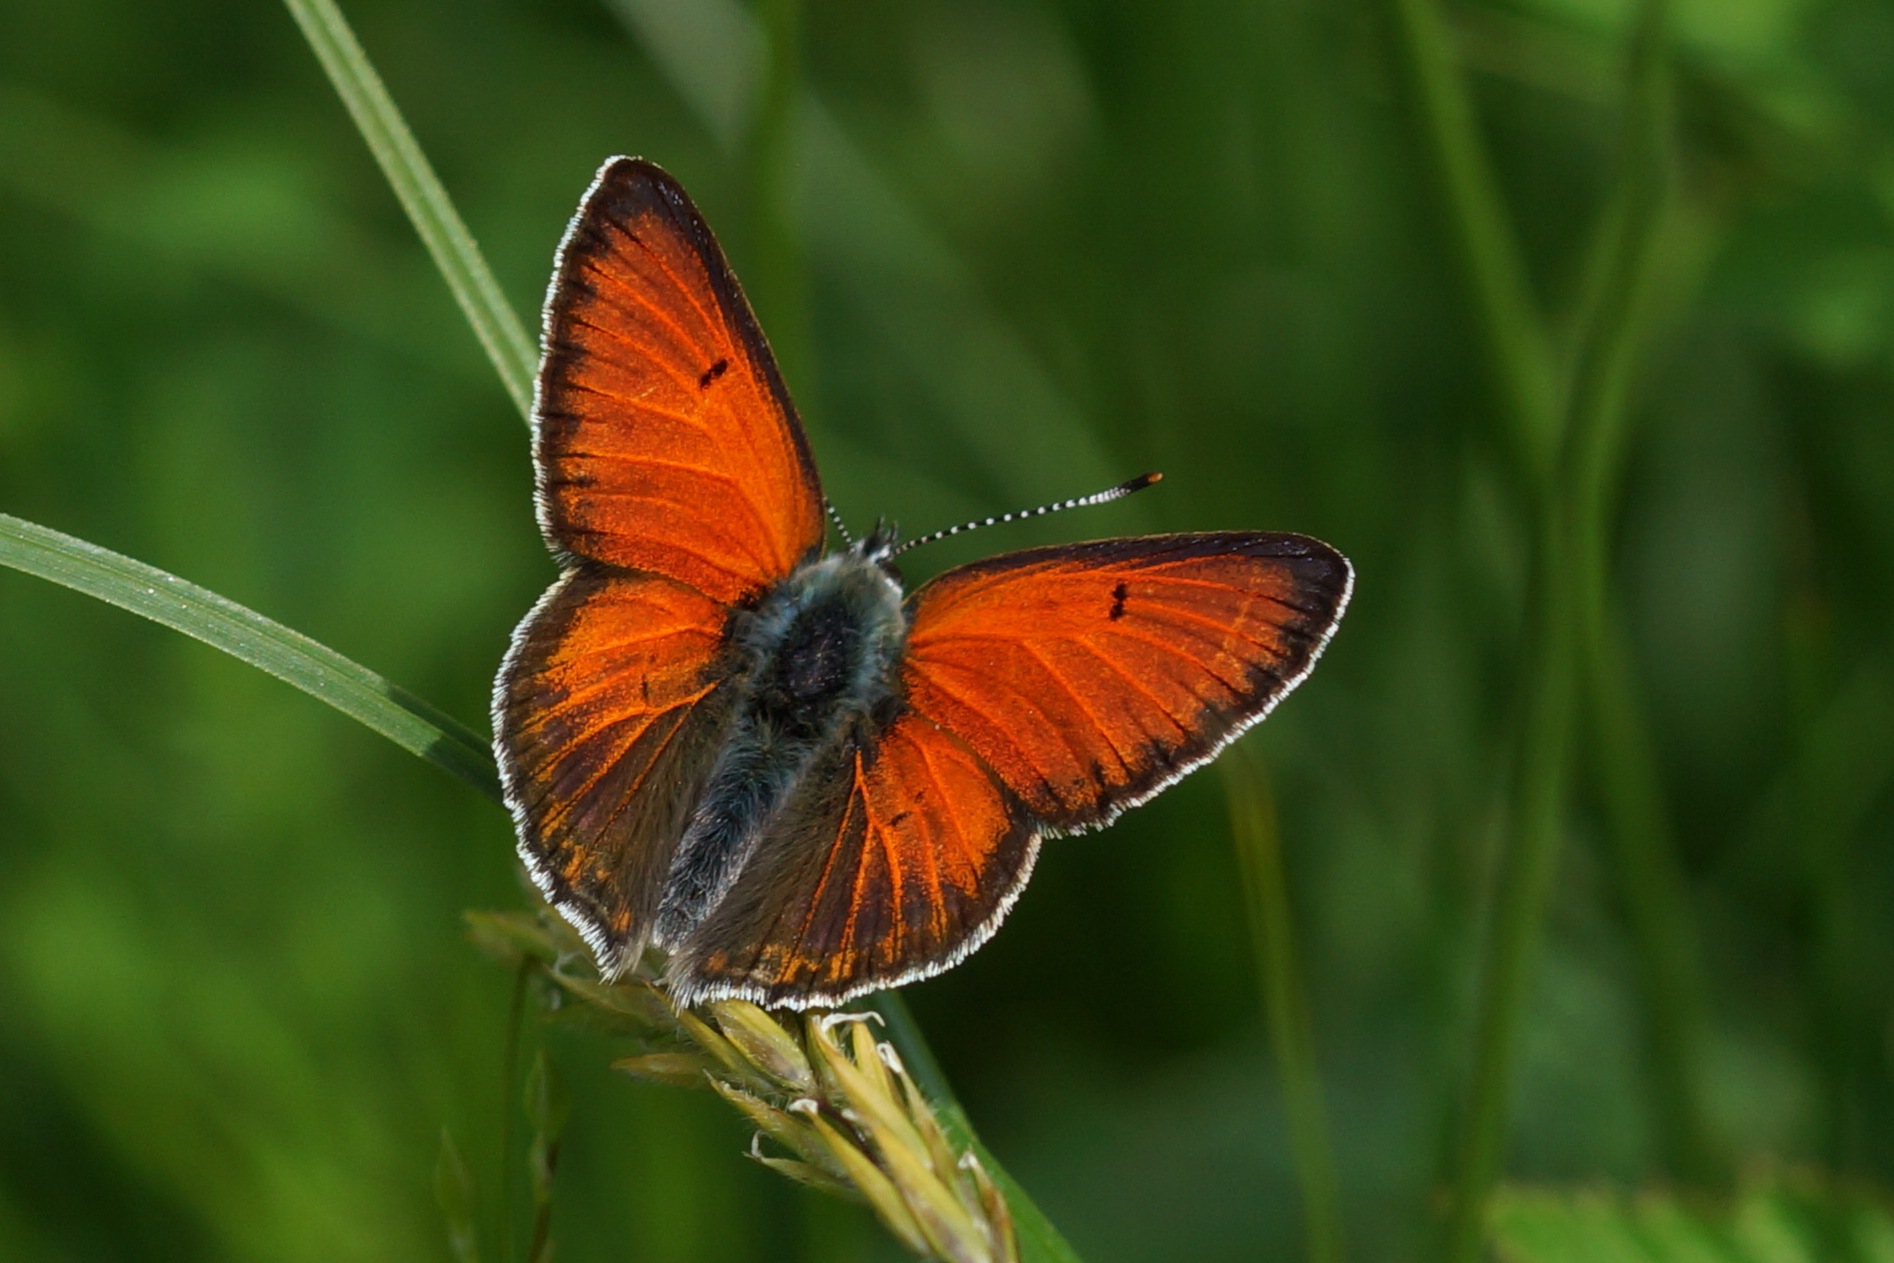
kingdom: Animalia
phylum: Arthropoda
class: Insecta
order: Lepidoptera
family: Lycaenidae
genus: Palaeochrysophanus
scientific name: Palaeochrysophanus hippothoe
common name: Violetrandet ildfugl
